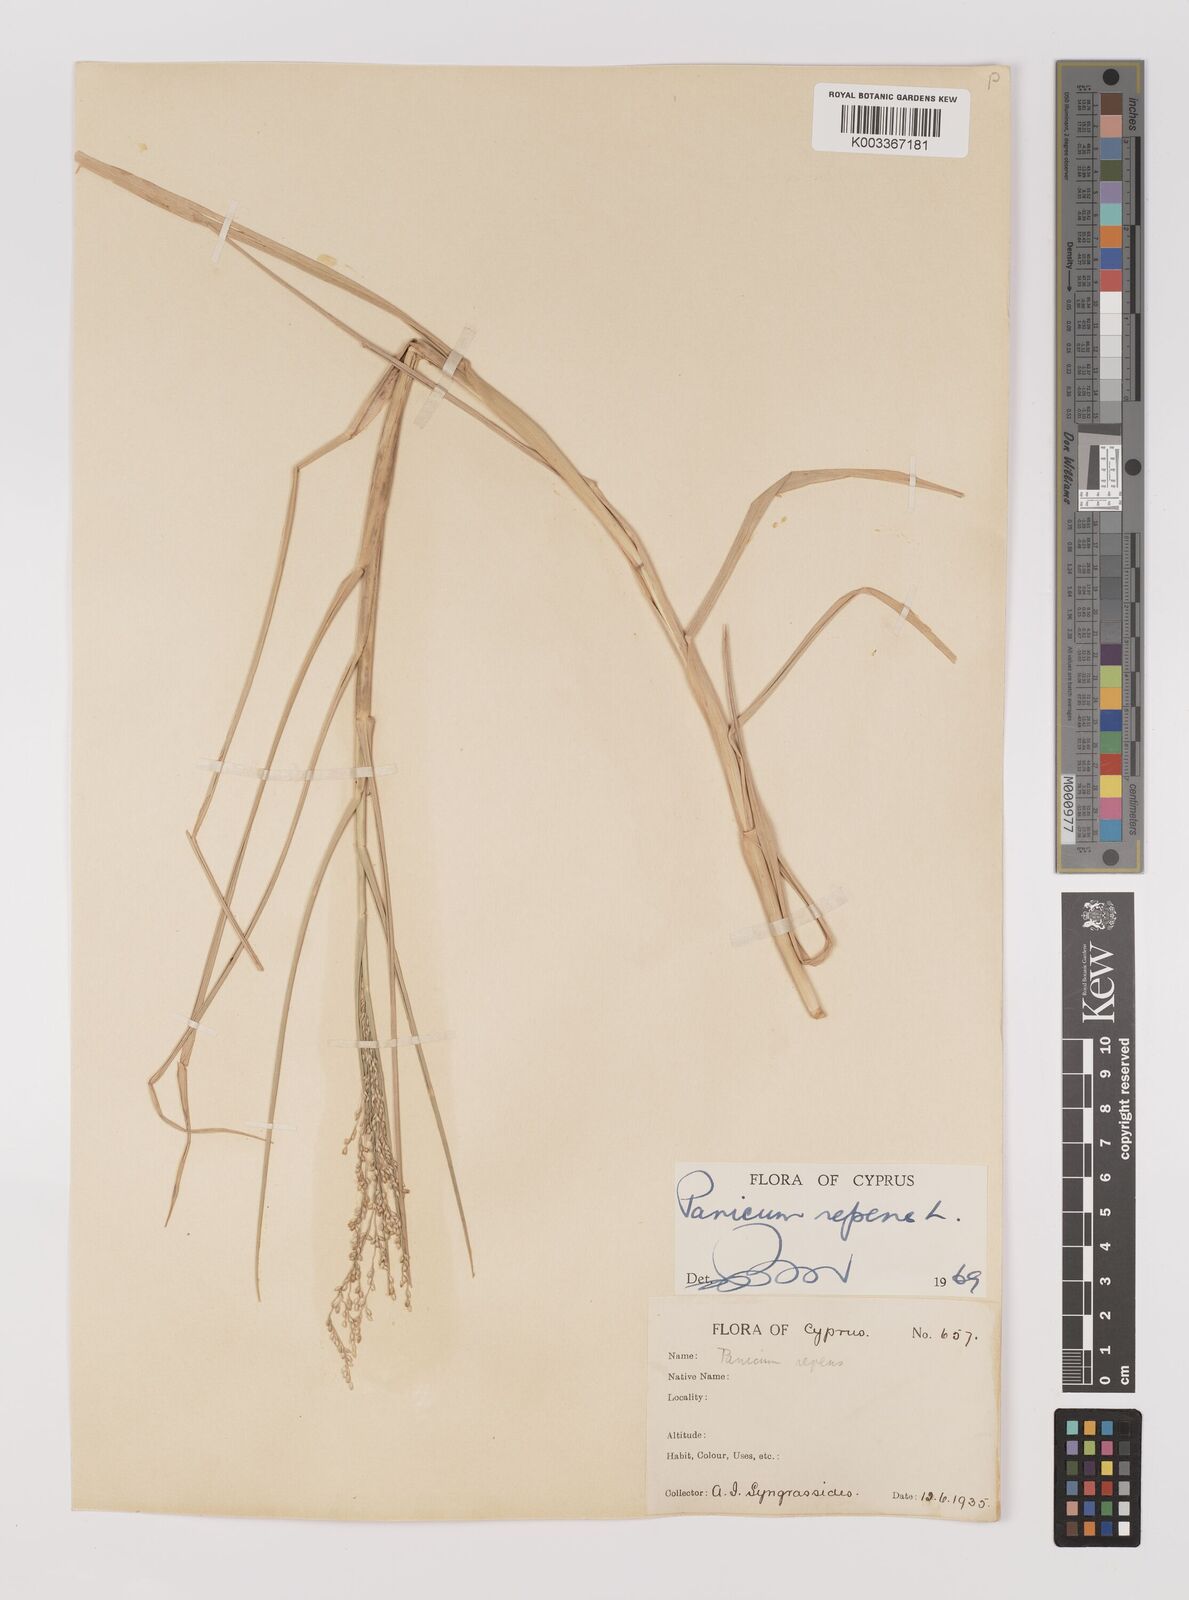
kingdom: Plantae
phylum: Tracheophyta
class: Liliopsida
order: Poales
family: Poaceae
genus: Panicum
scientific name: Panicum repens
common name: Torpedo grass
